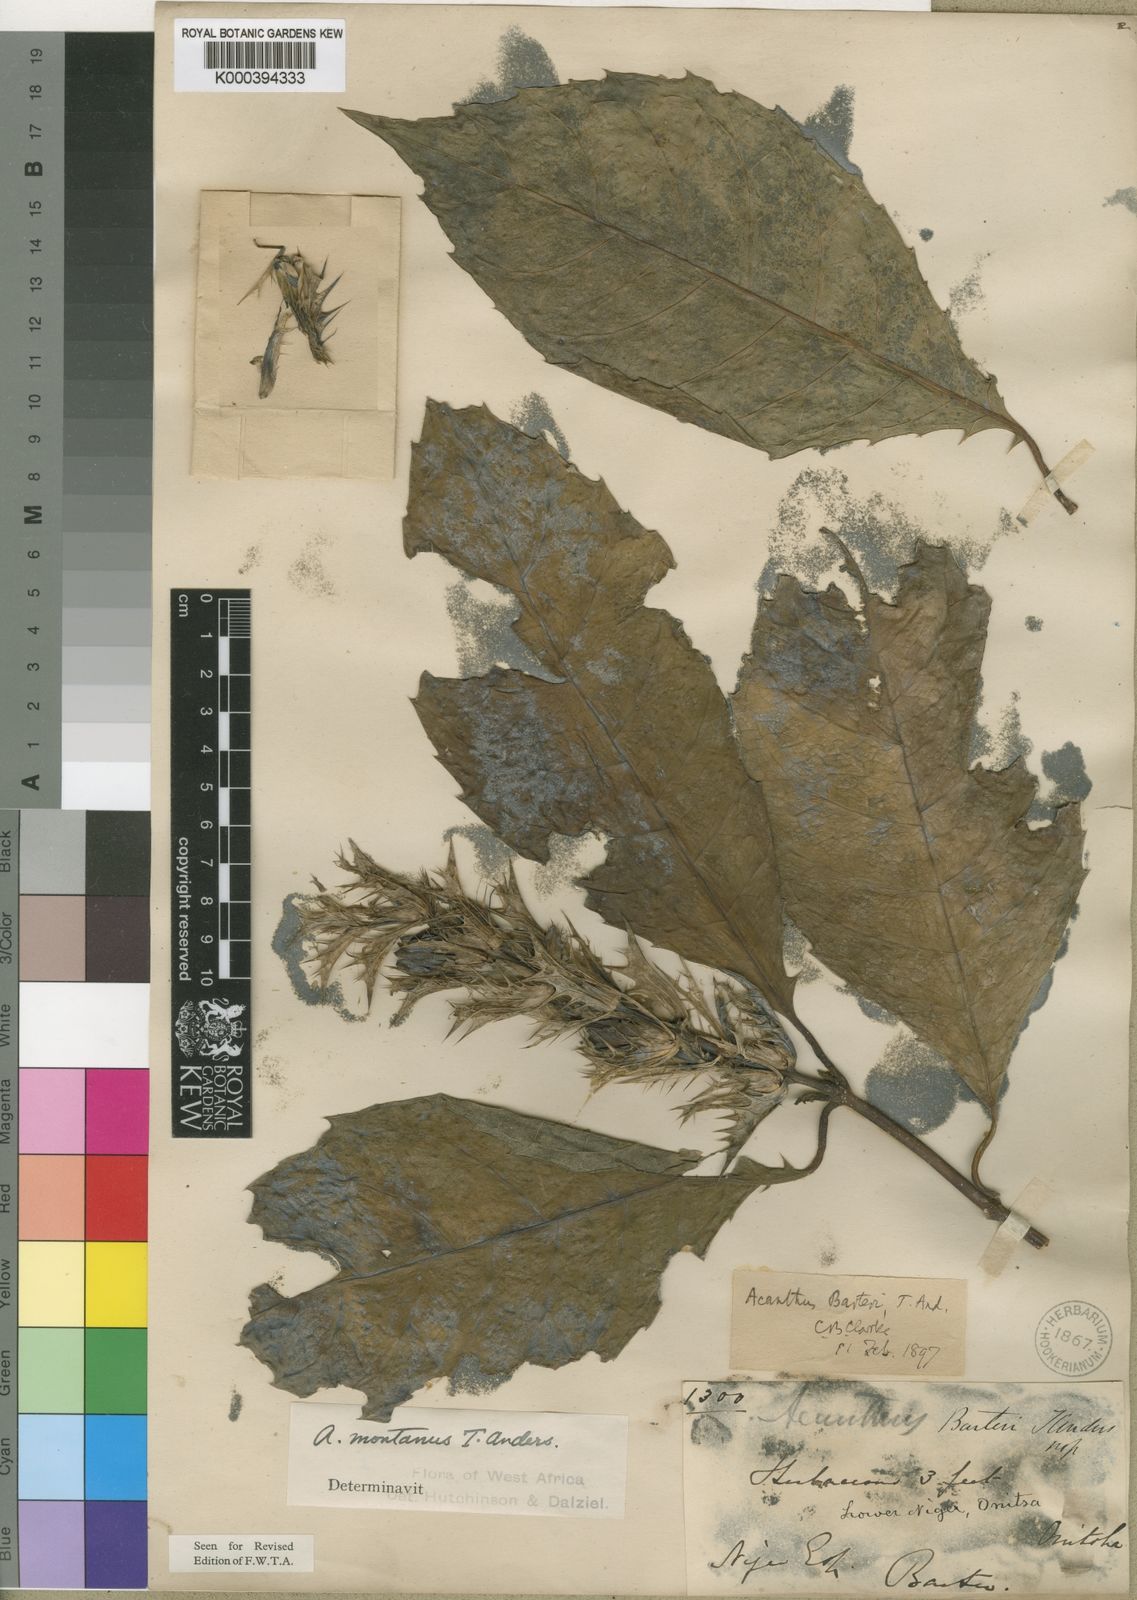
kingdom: Plantae
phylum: Tracheophyta
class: Magnoliopsida
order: Lamiales
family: Acanthaceae
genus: Acanthus
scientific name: Acanthus montanus
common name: Mountain thistle
